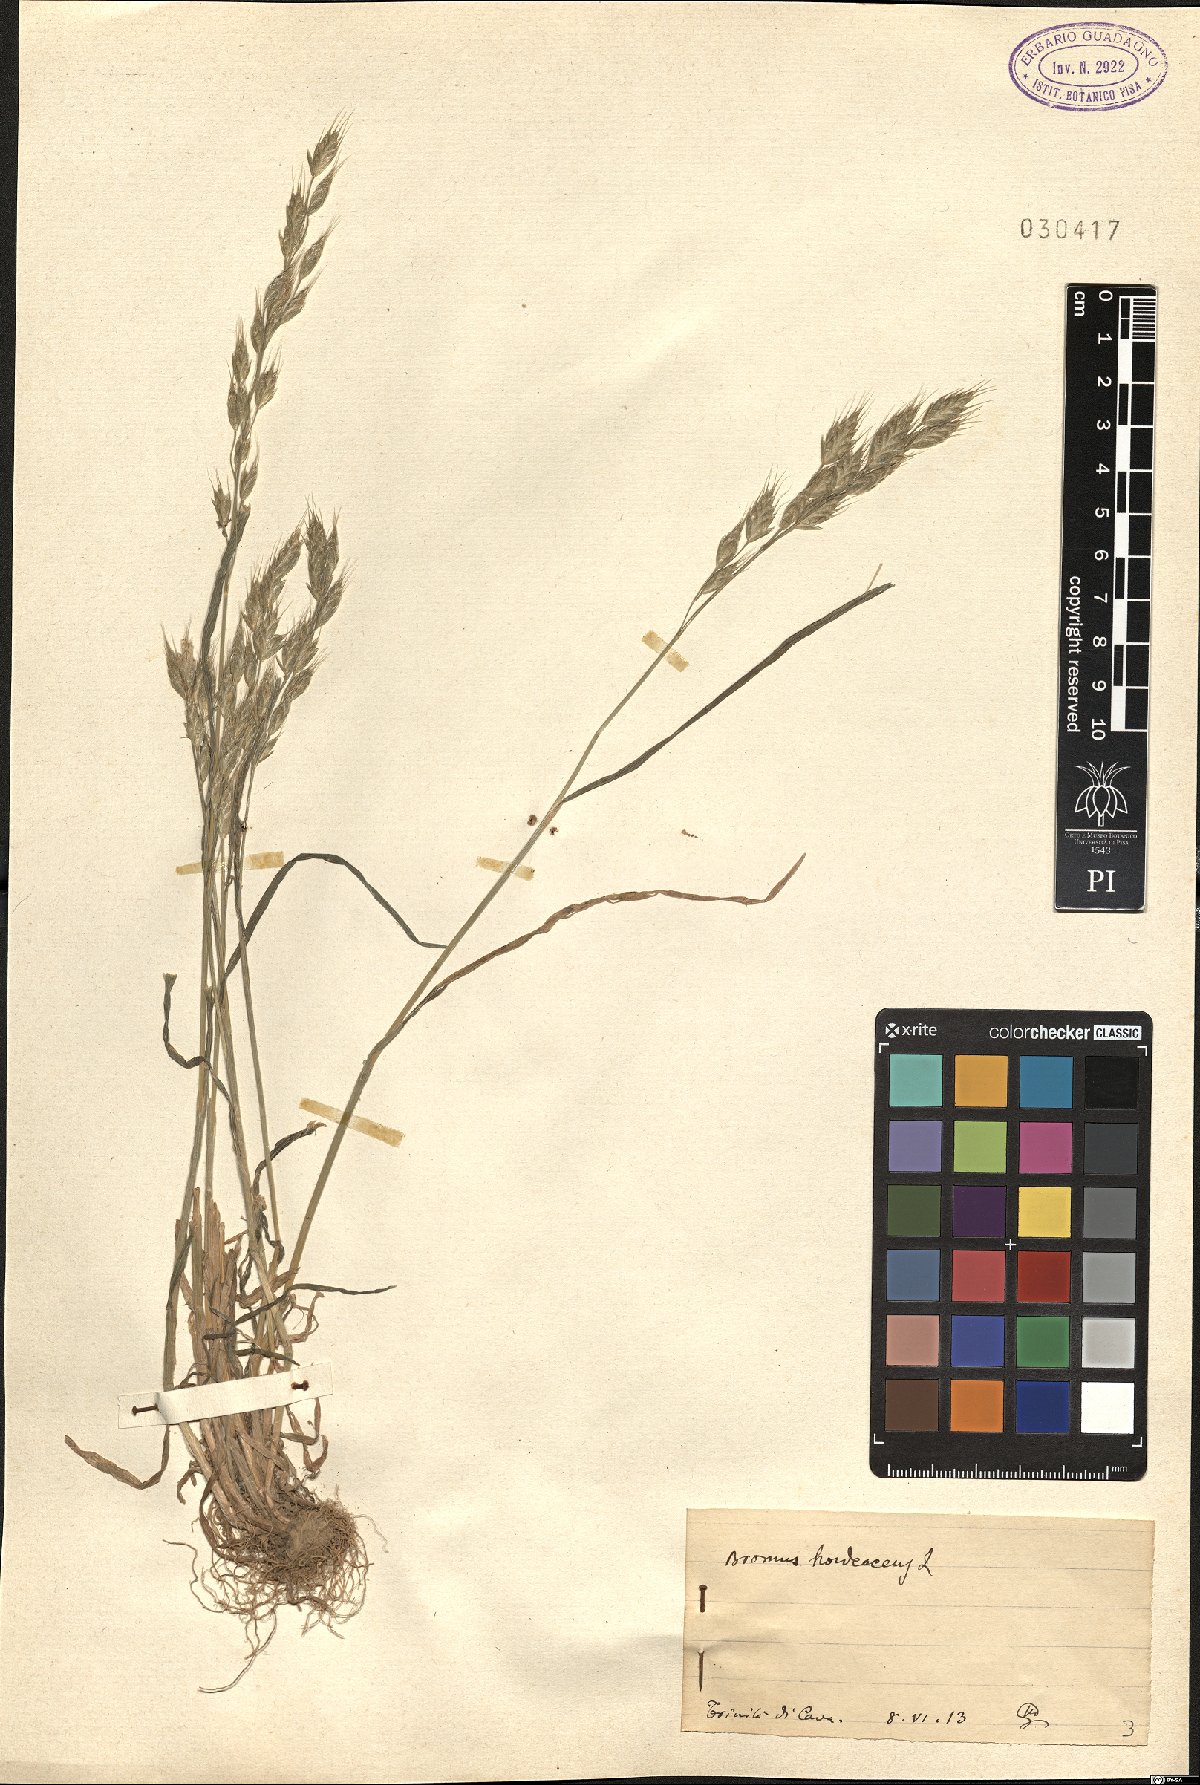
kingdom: Plantae
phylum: Tracheophyta
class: Liliopsida
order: Poales
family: Poaceae
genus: Bromus
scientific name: Bromus hordeaceus
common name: Soft brome
